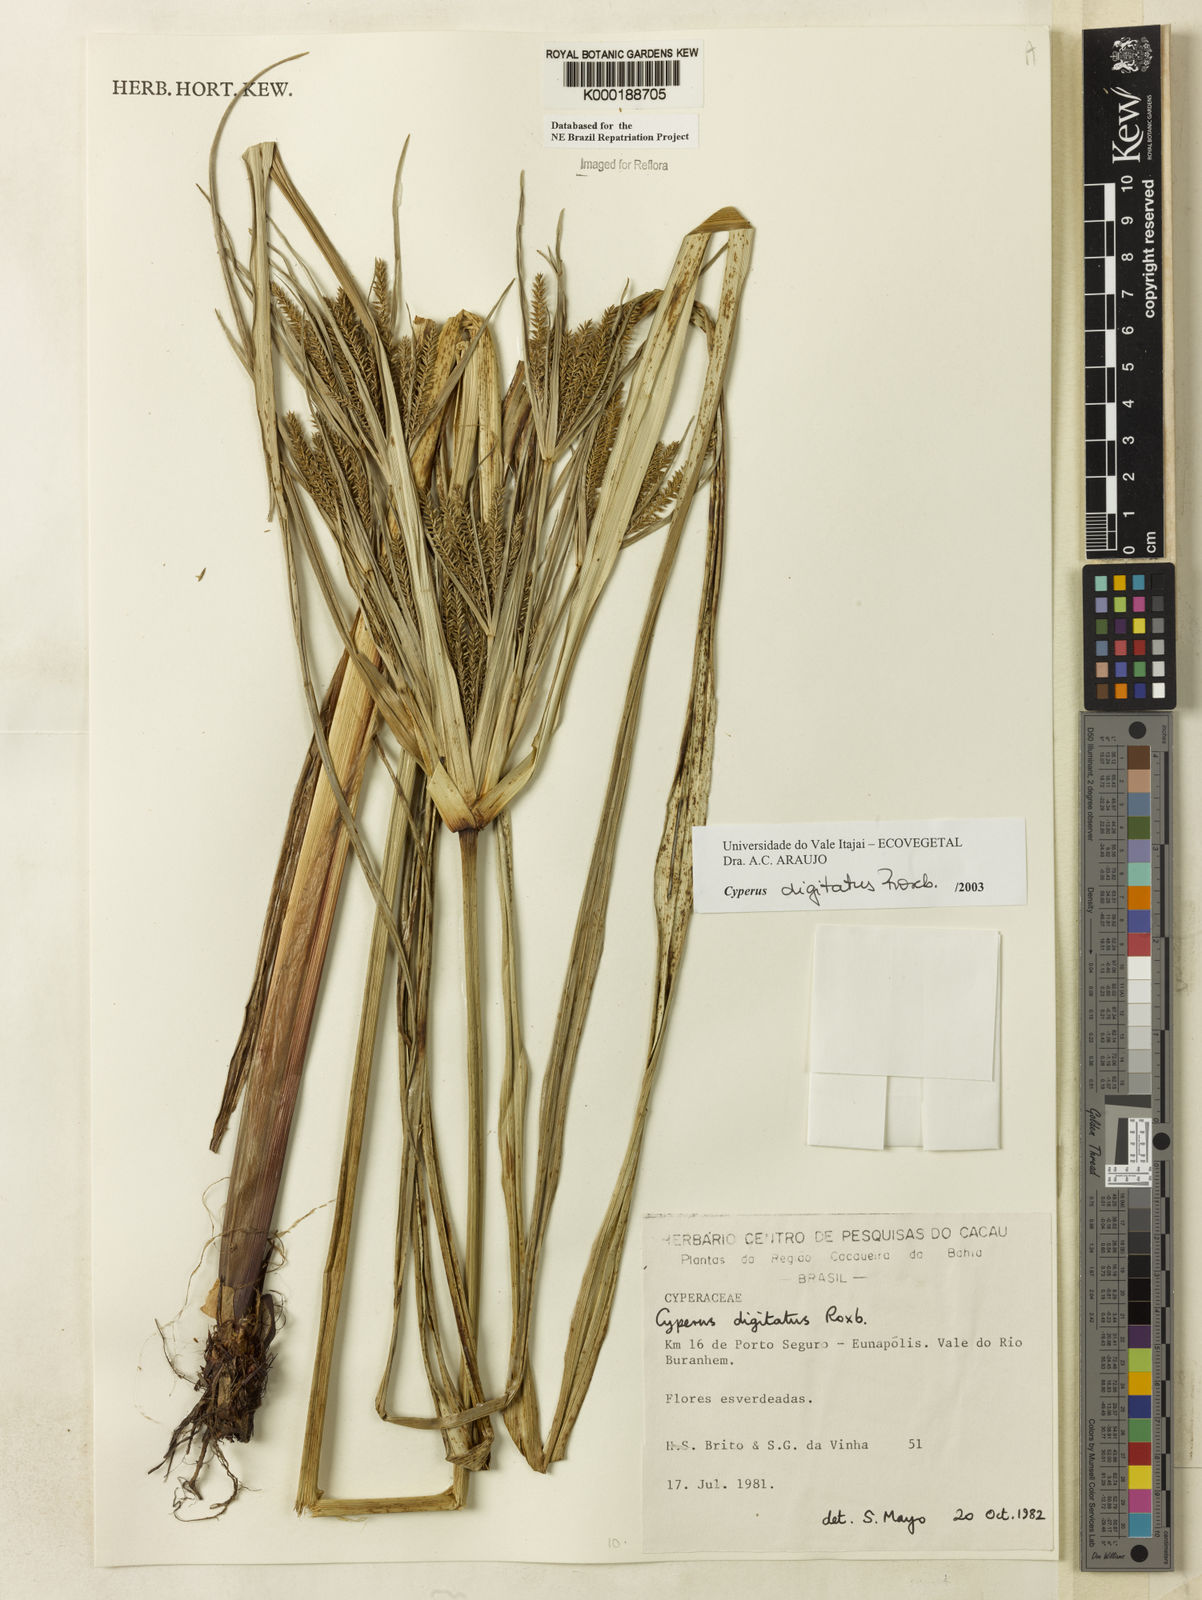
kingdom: Plantae
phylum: Tracheophyta
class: Liliopsida
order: Poales
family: Cyperaceae
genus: Cyperus
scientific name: Cyperus digitatus
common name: Finger flatsedge
